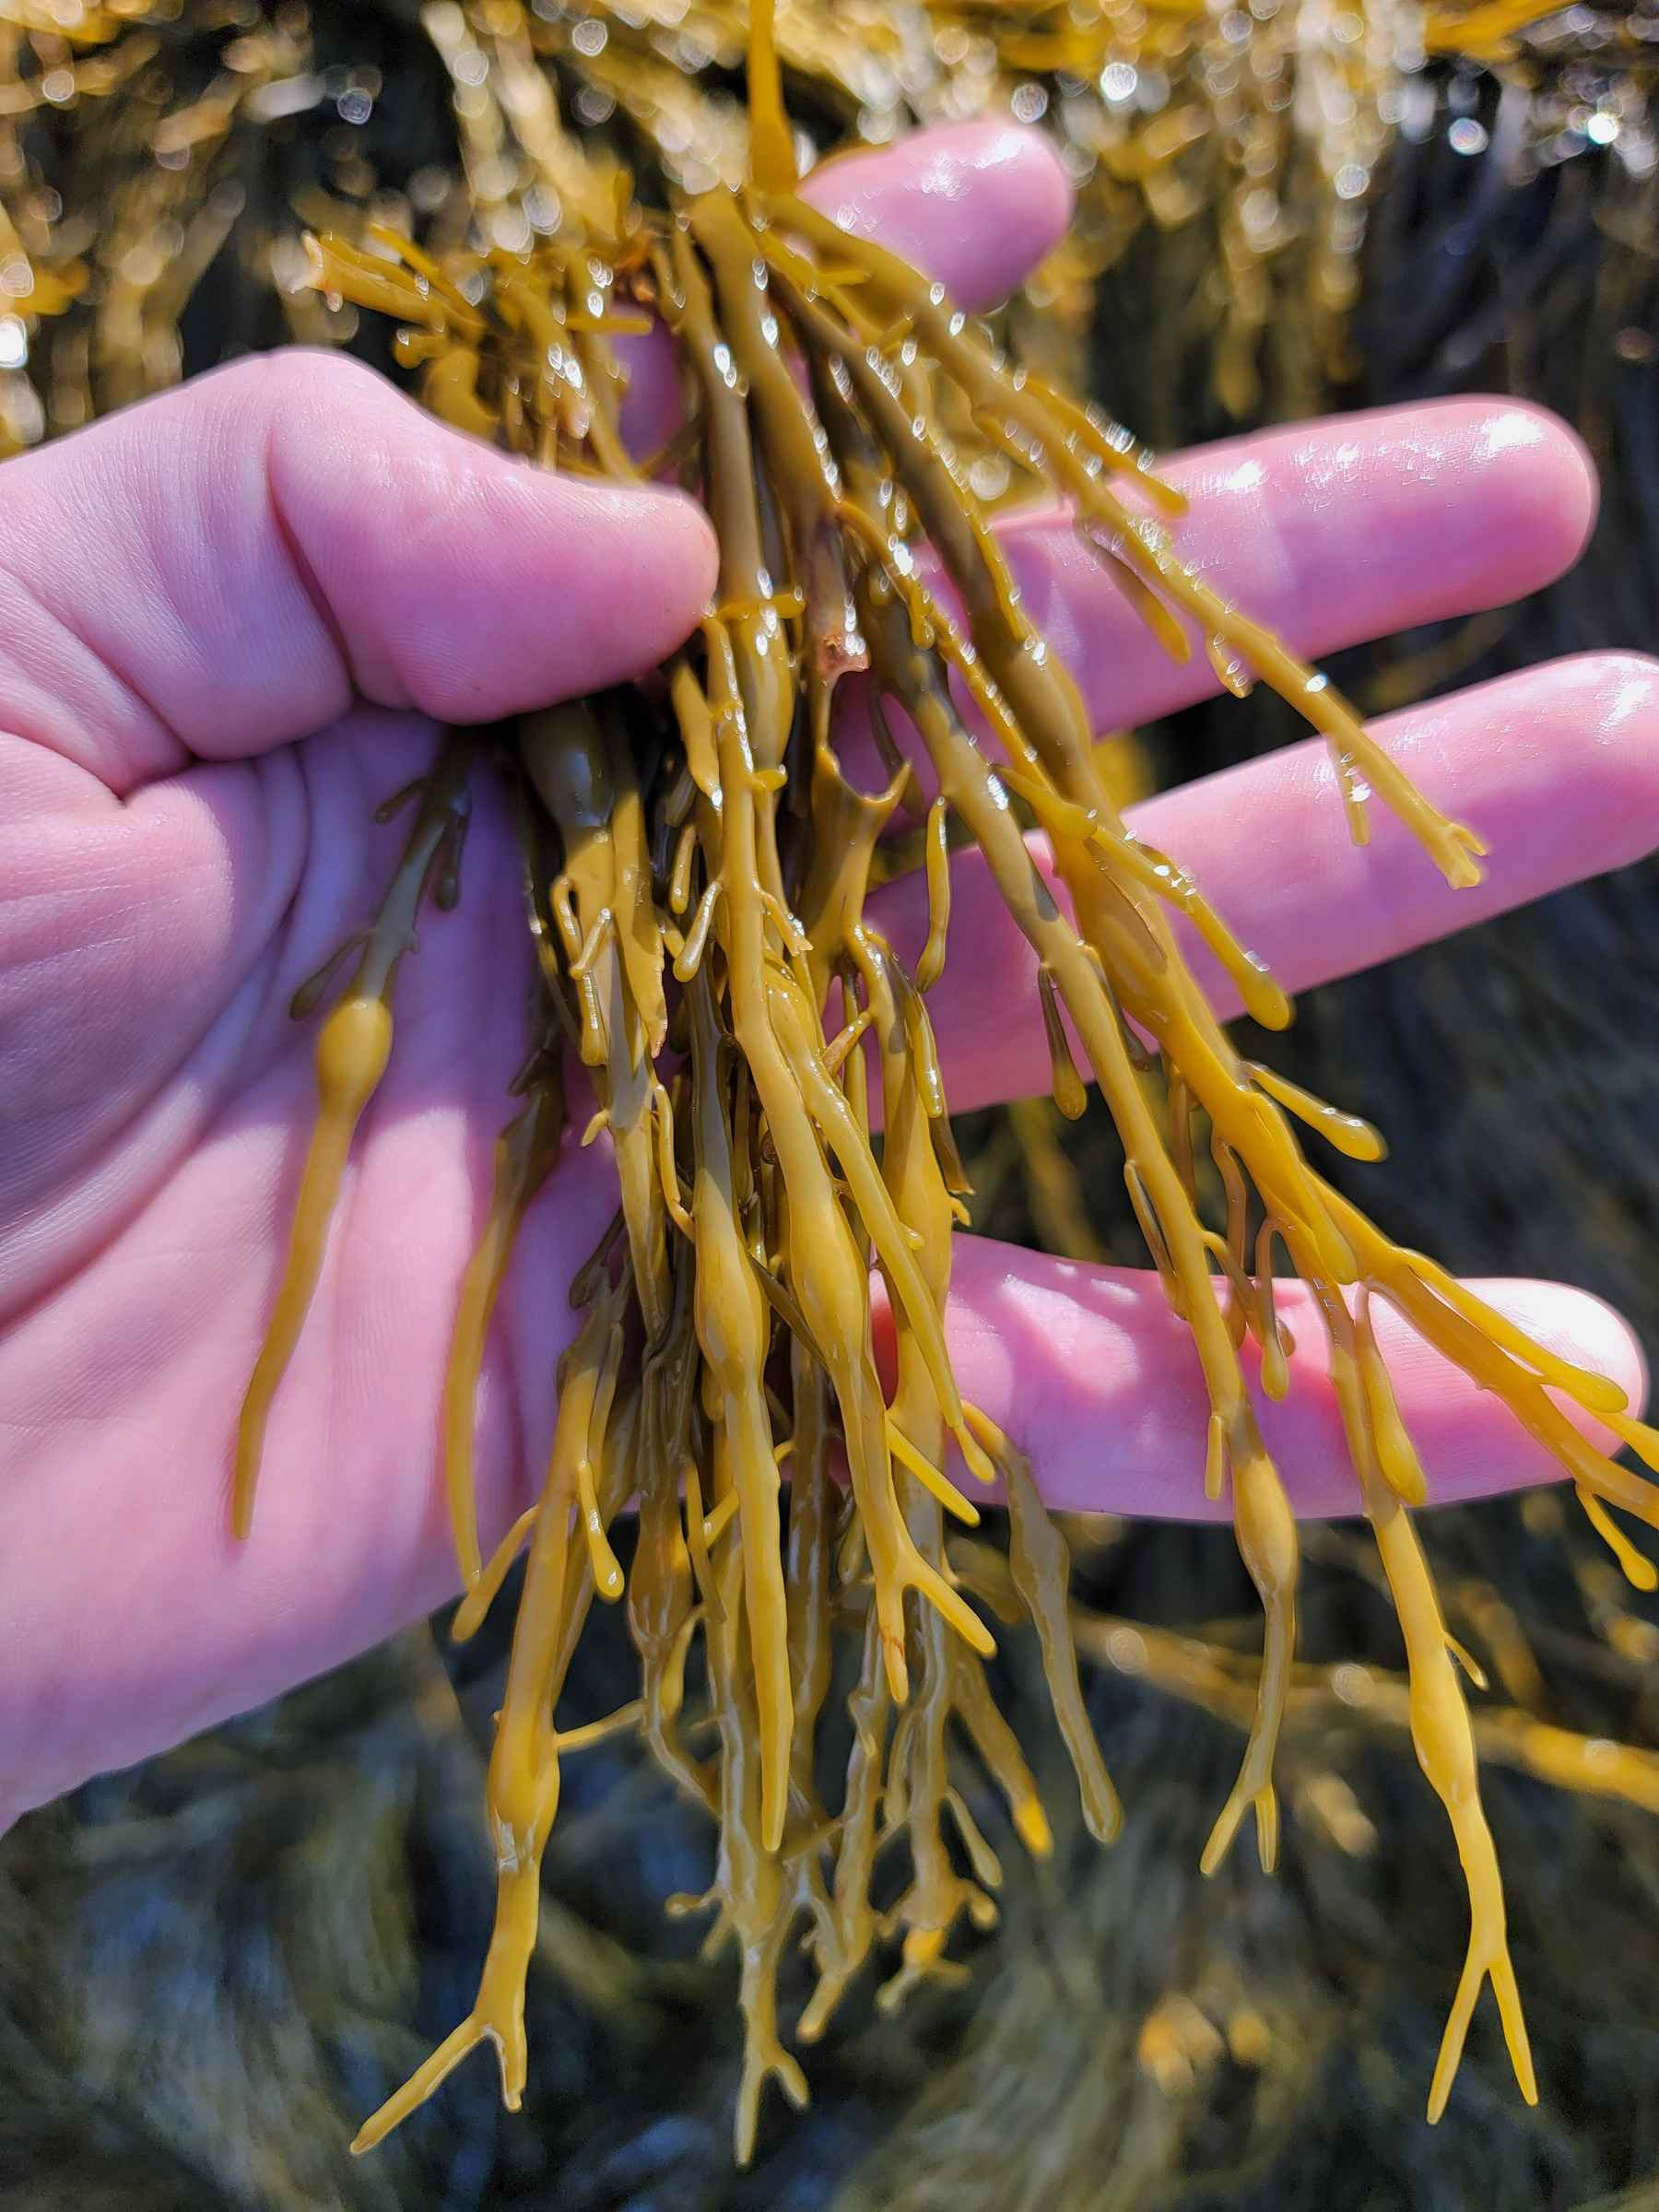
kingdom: Chromista
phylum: Ochrophyta
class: Phaeophyceae
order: Fucales
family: Fucaceae
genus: Ascophyllum
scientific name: Ascophyllum nodosum
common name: Rockweed
